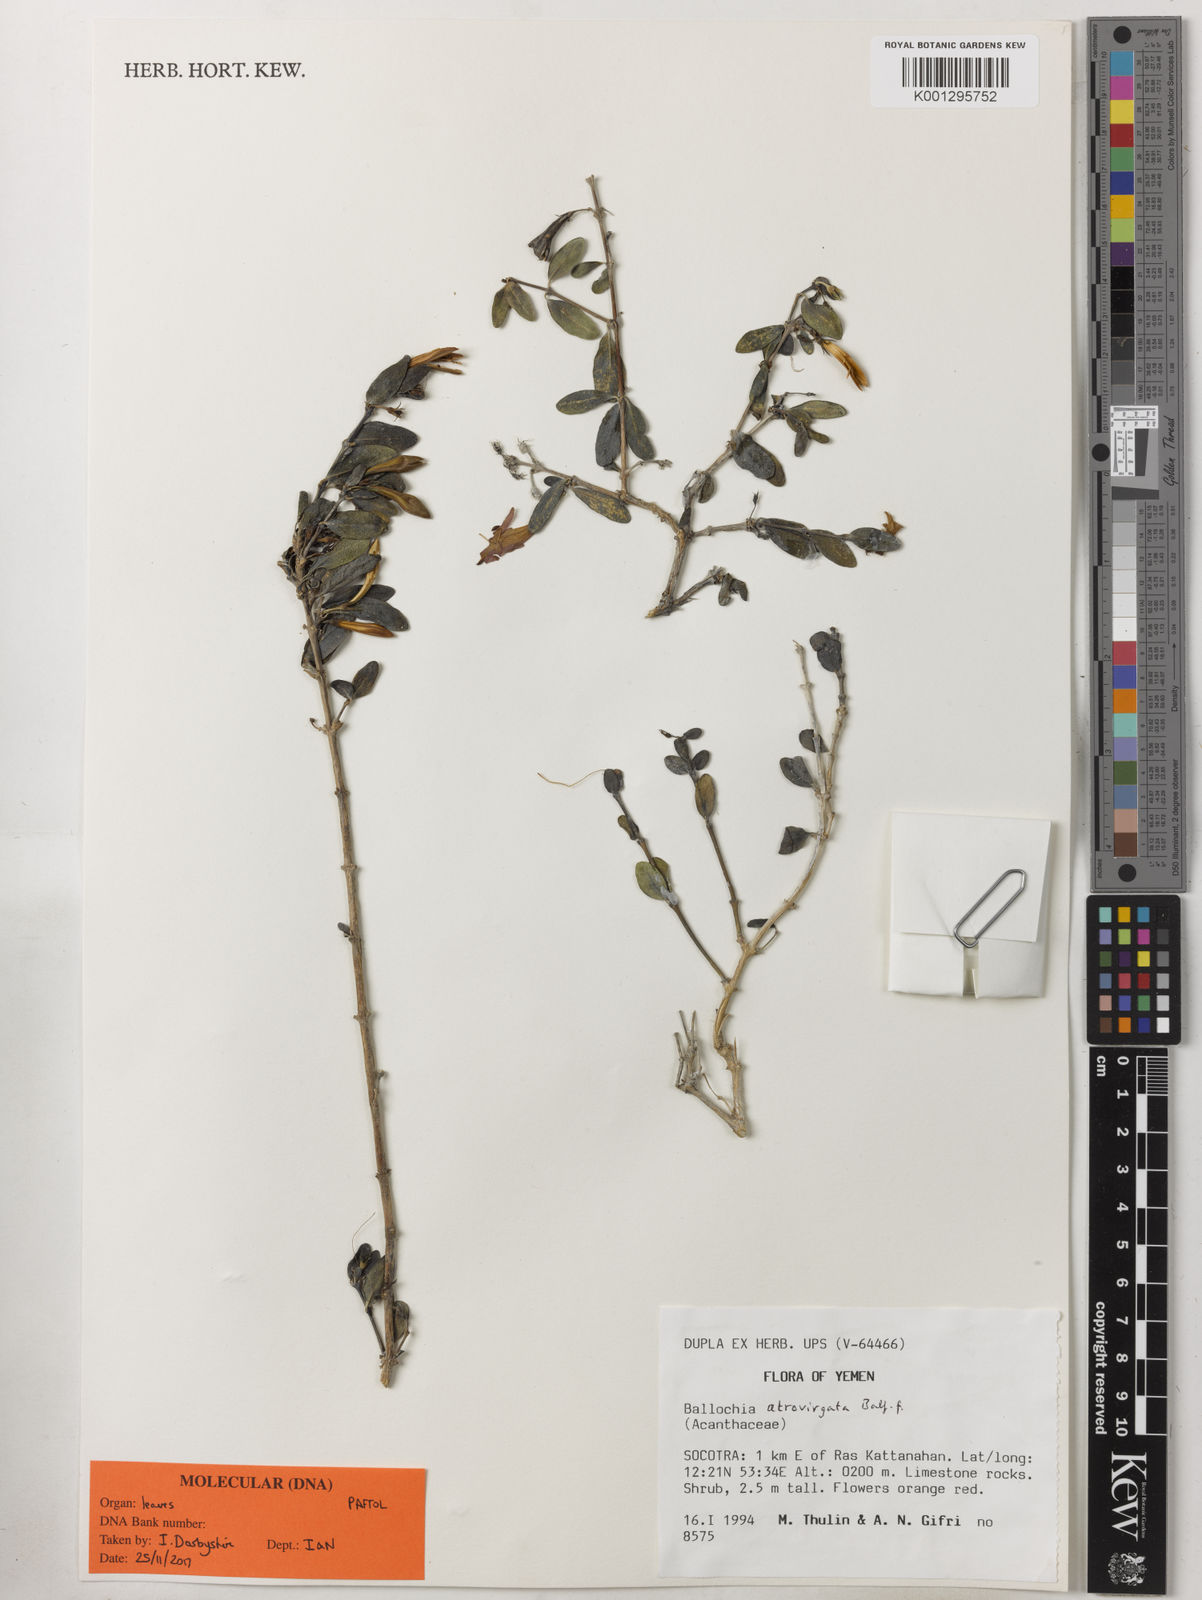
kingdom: Plantae
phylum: Tracheophyta
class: Magnoliopsida
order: Lamiales
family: Acanthaceae
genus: Ballochia
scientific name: Ballochia atrovirgata
